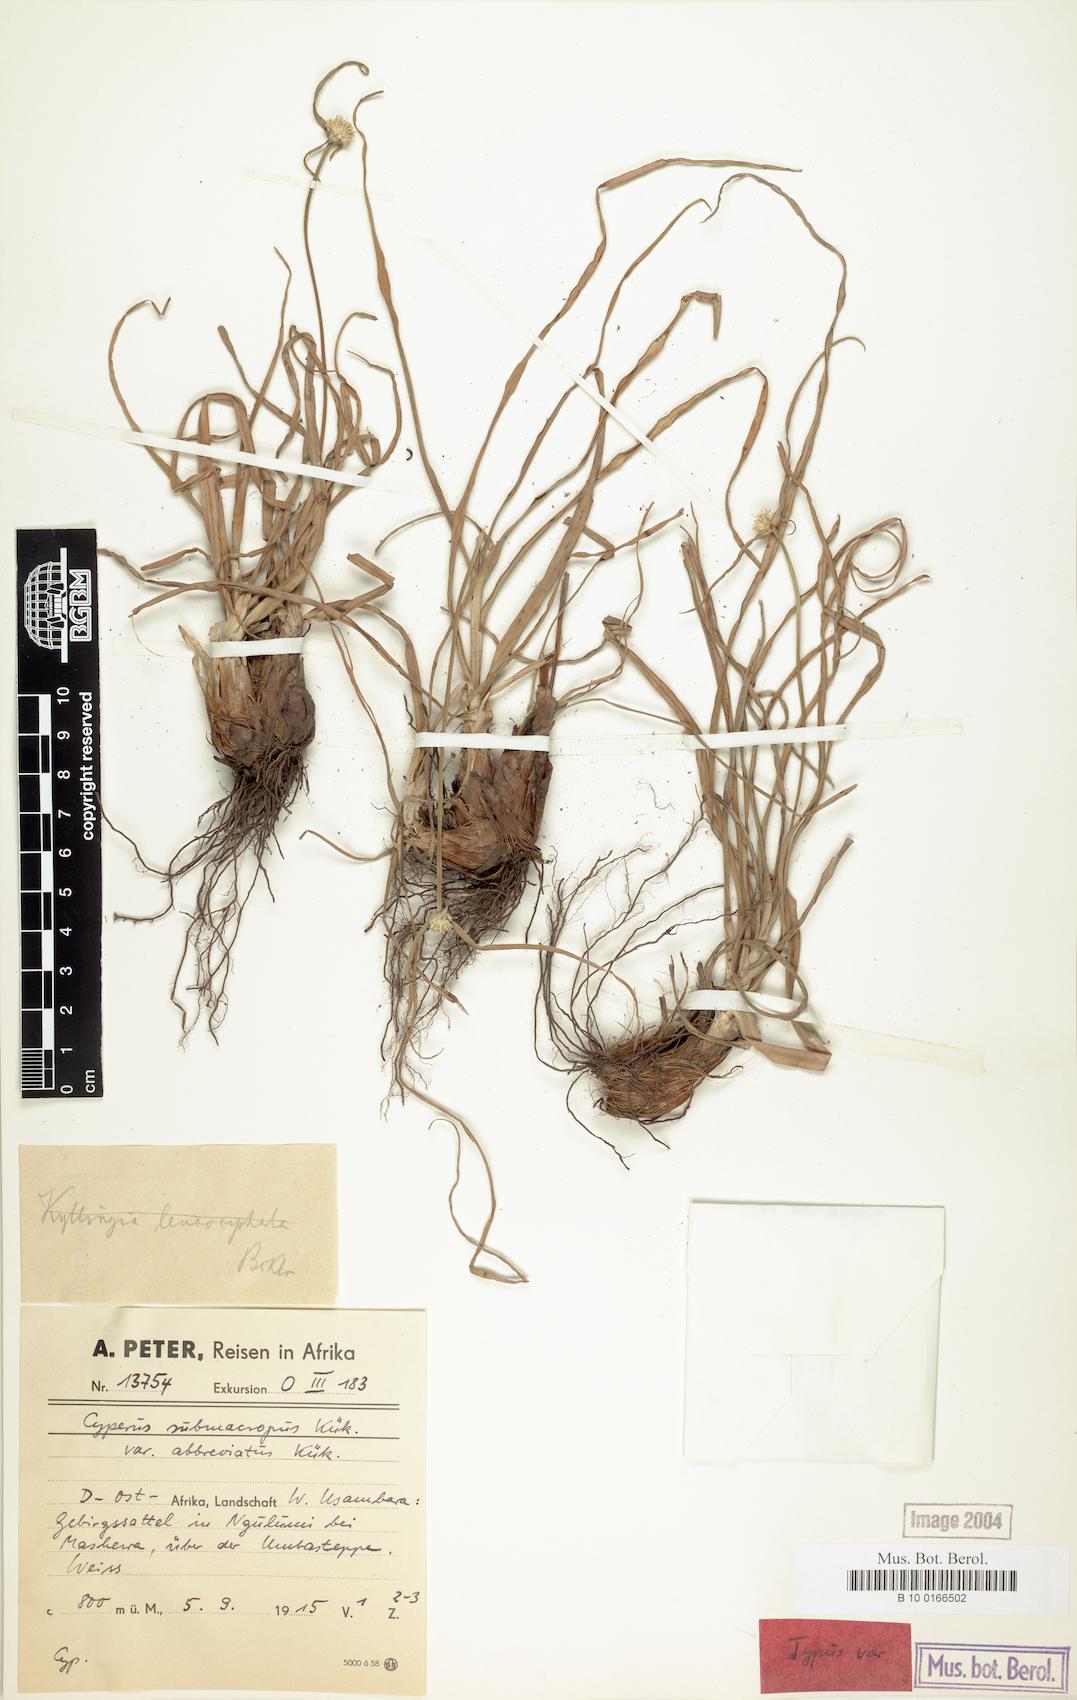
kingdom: Plantae
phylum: Tracheophyta
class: Liliopsida
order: Poales
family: Cyperaceae
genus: Cyperus
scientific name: Cyperus mollipes
